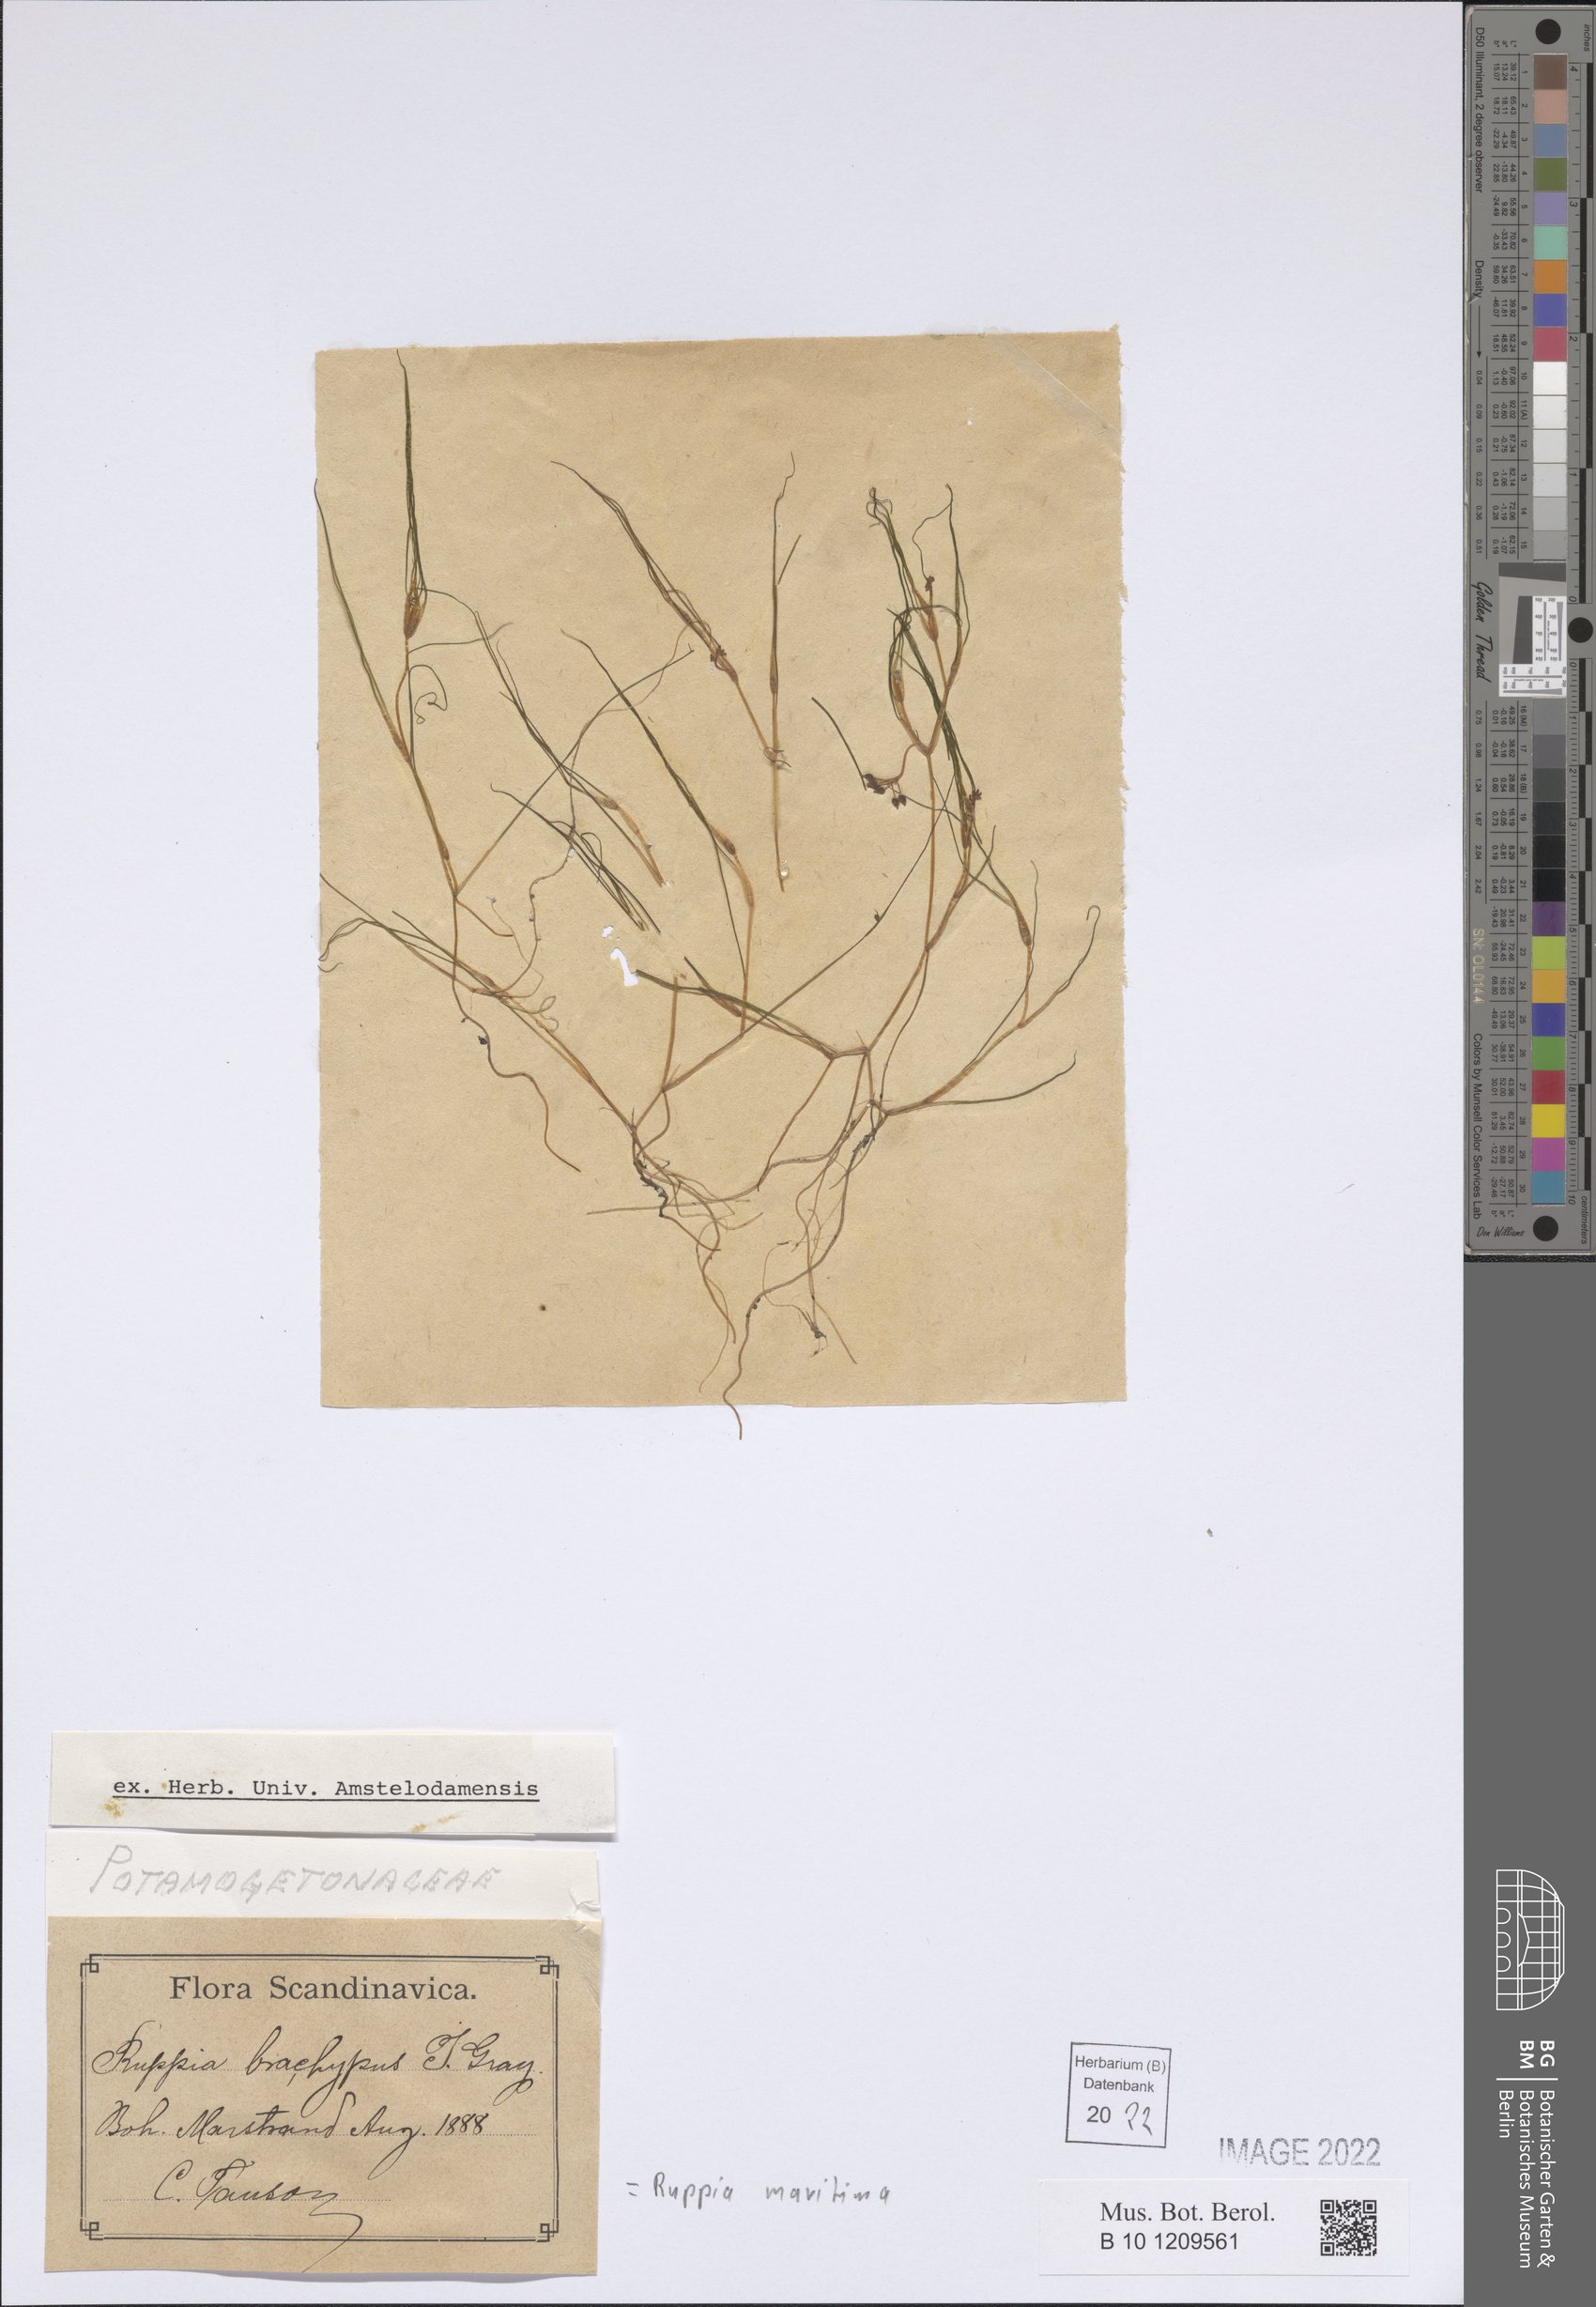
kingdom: Plantae
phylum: Tracheophyta
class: Liliopsida
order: Alismatales
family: Ruppiaceae
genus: Ruppia
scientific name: Ruppia maritima
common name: Beaked tasselweed
